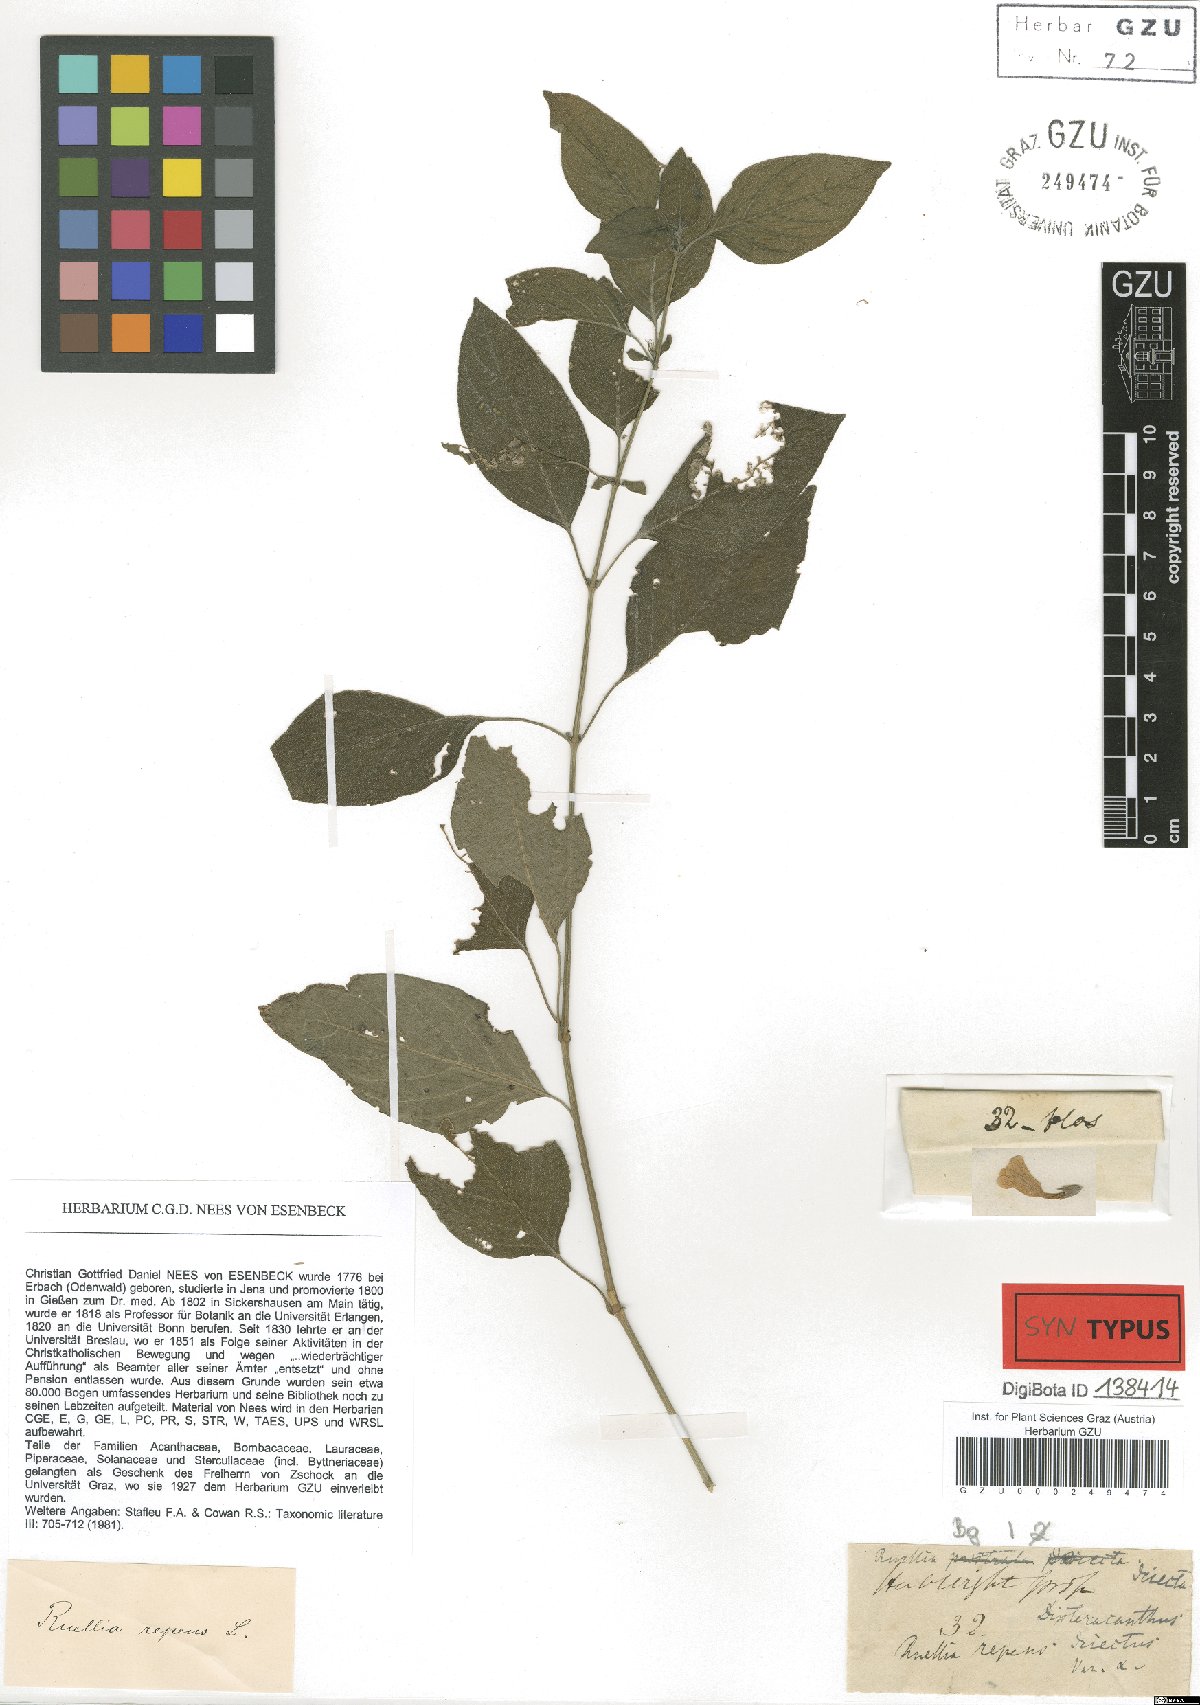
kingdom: Plantae
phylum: Tracheophyta
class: Magnoliopsida
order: Lamiales
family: Acanthaceae
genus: Ruellia
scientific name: Ruellia prostrata
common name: Prostrate wild petunia
